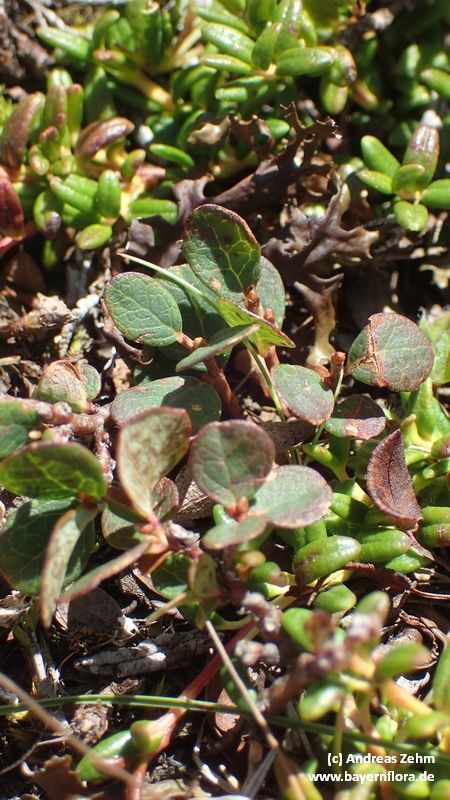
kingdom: Plantae
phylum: Tracheophyta
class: Magnoliopsida
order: Ericales
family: Ericaceae
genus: Vaccinium
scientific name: Vaccinium uliginosum
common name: Bog bilberry
